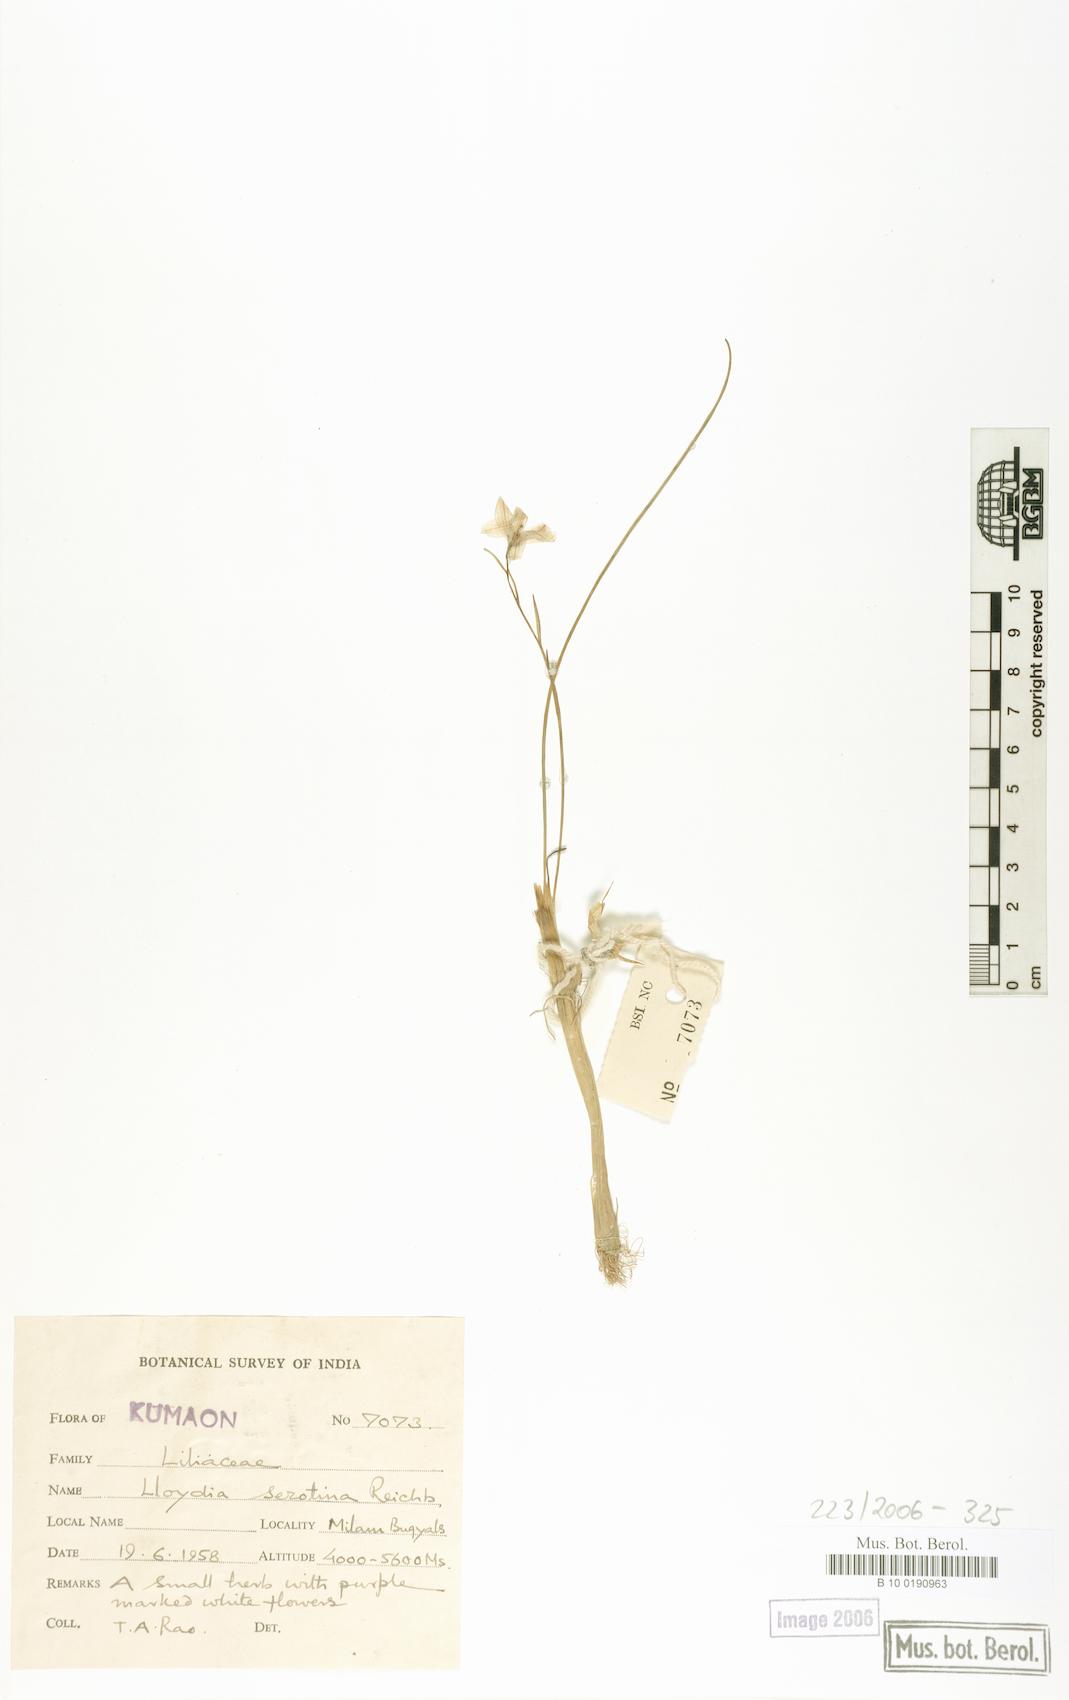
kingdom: Plantae
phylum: Tracheophyta
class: Liliopsida
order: Liliales
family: Liliaceae
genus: Gagea
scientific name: Gagea serotina
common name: Snowdon lily
